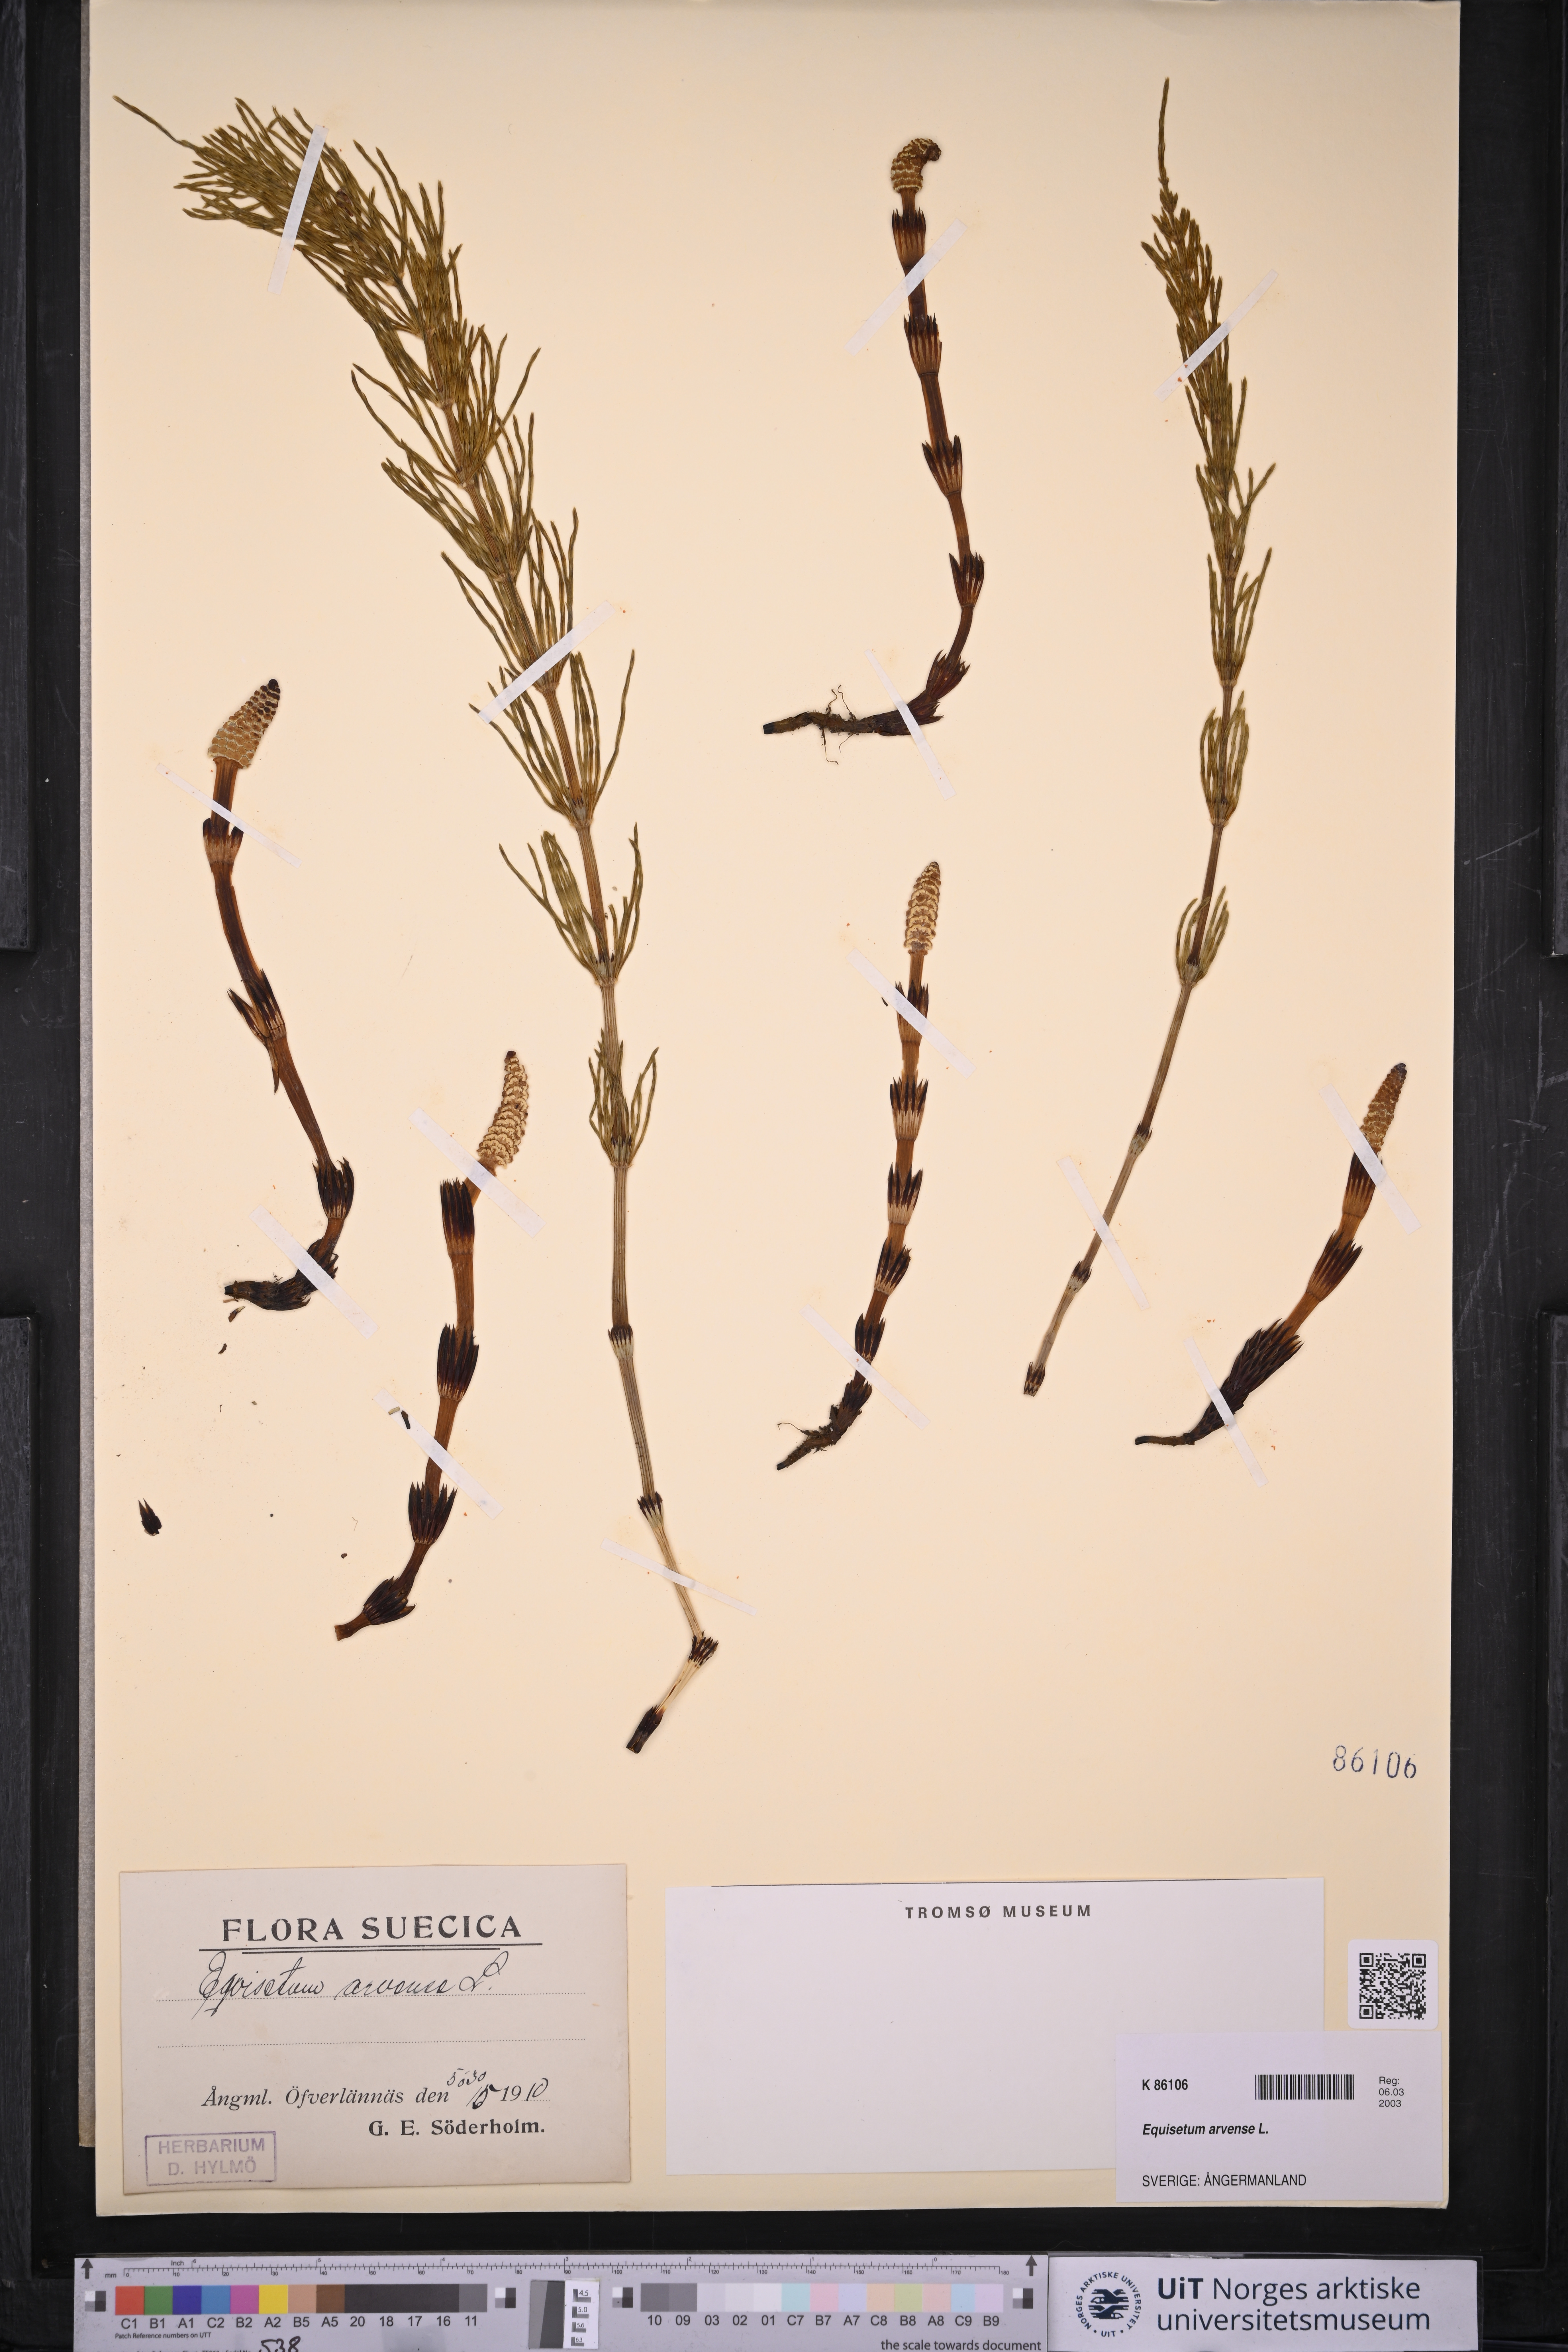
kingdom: Plantae
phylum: Tracheophyta
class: Polypodiopsida
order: Equisetales
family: Equisetaceae
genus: Equisetum
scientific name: Equisetum arvense
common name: Field horsetail
